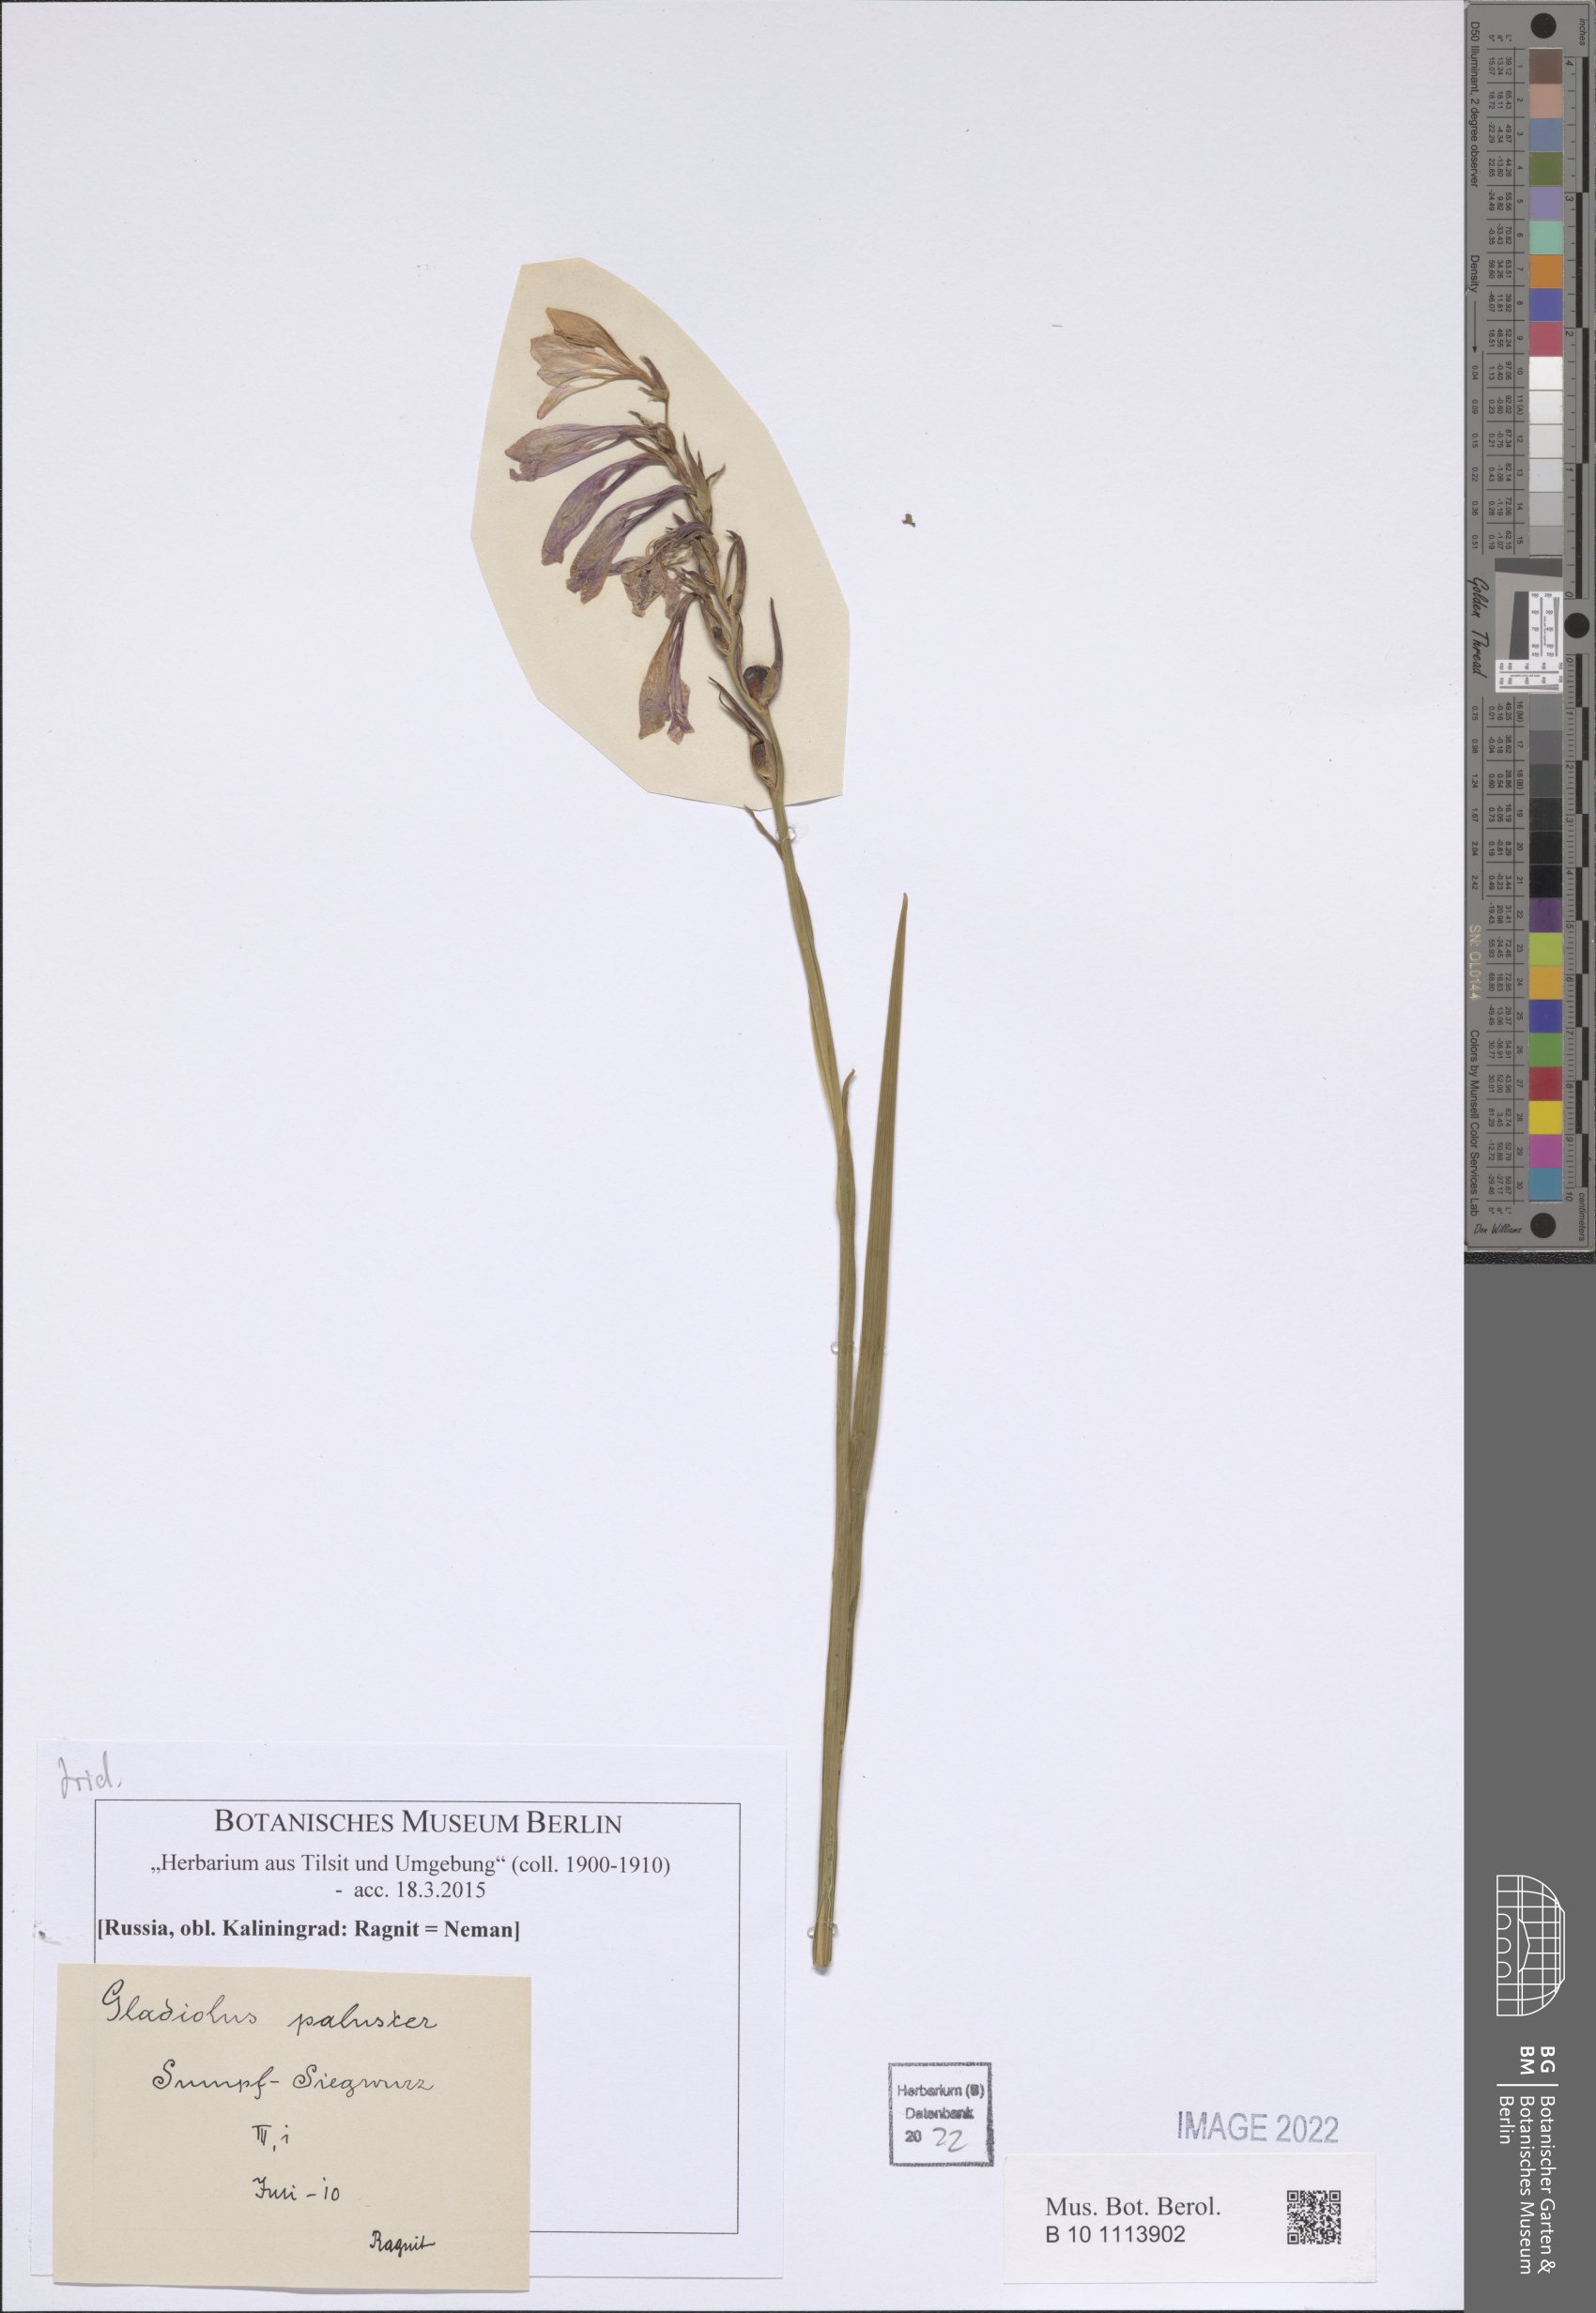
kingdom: Plantae
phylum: Tracheophyta
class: Liliopsida
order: Asparagales
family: Iridaceae
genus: Gladiolus
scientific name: Gladiolus palustris
